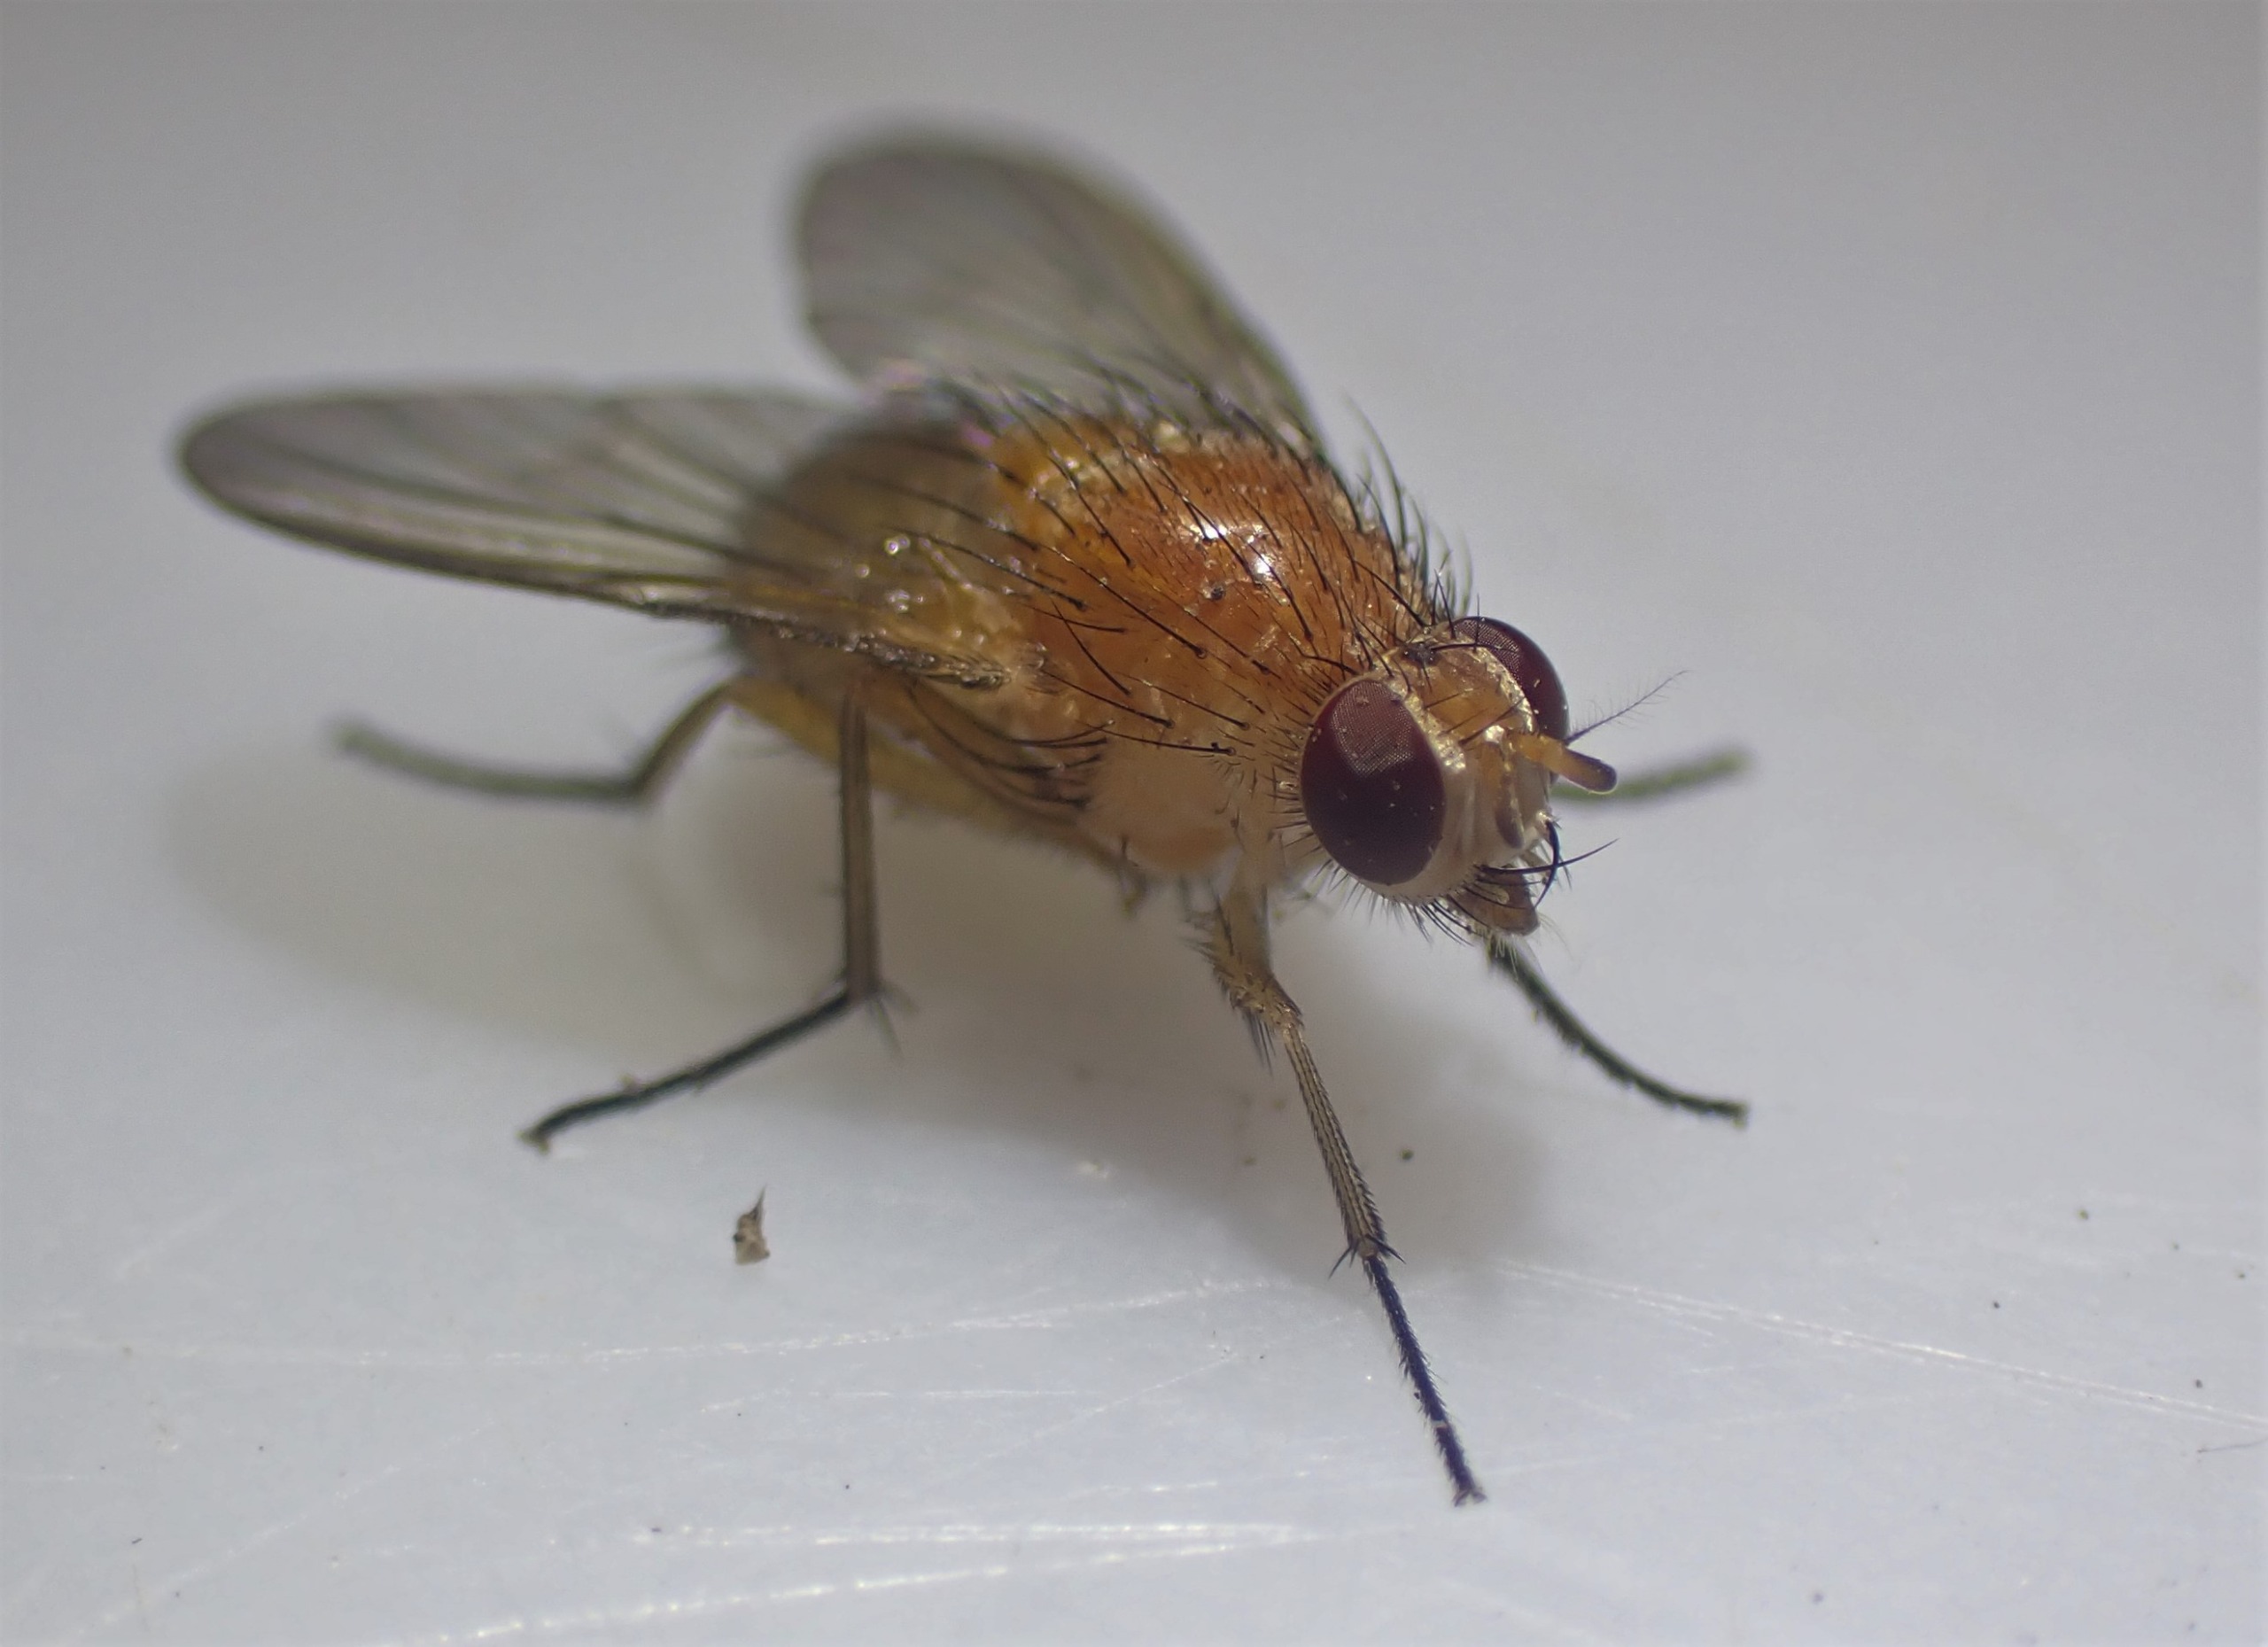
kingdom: Animalia
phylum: Arthropoda
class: Insecta
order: Diptera
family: Muscidae
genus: Phaonia
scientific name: Phaonia pallida
